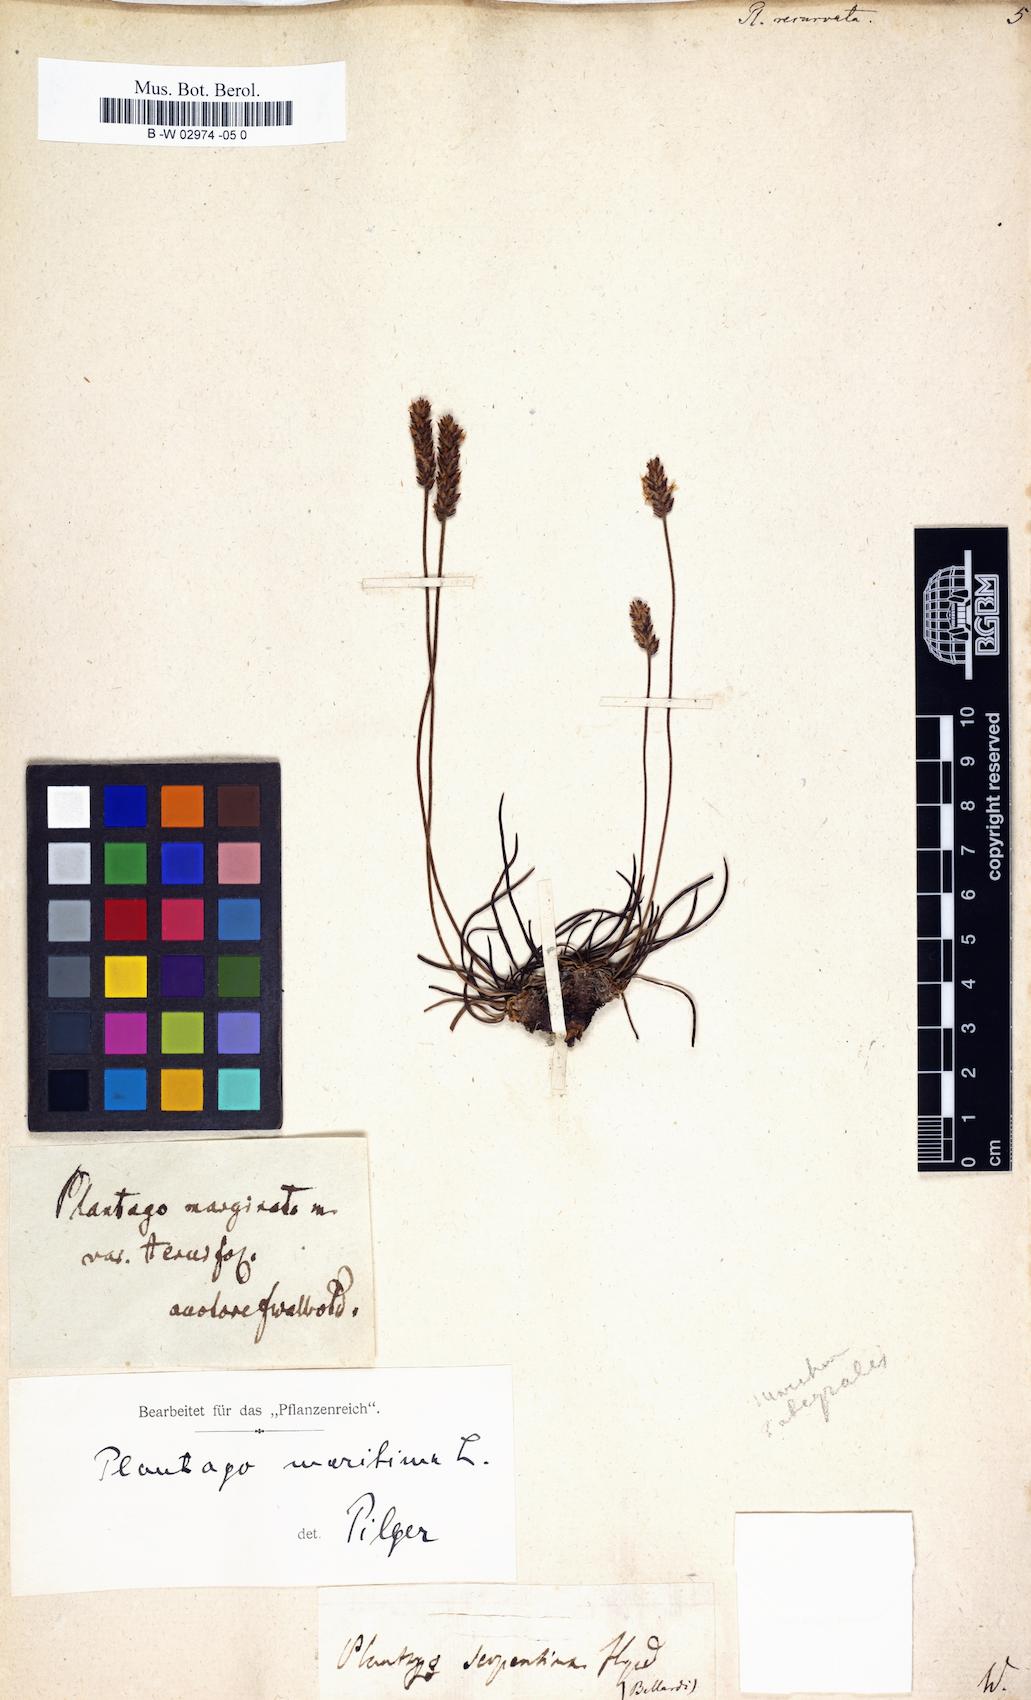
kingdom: Plantae
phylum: Tracheophyta
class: Magnoliopsida
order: Lamiales
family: Plantaginaceae
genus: Plantago
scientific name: Plantago
